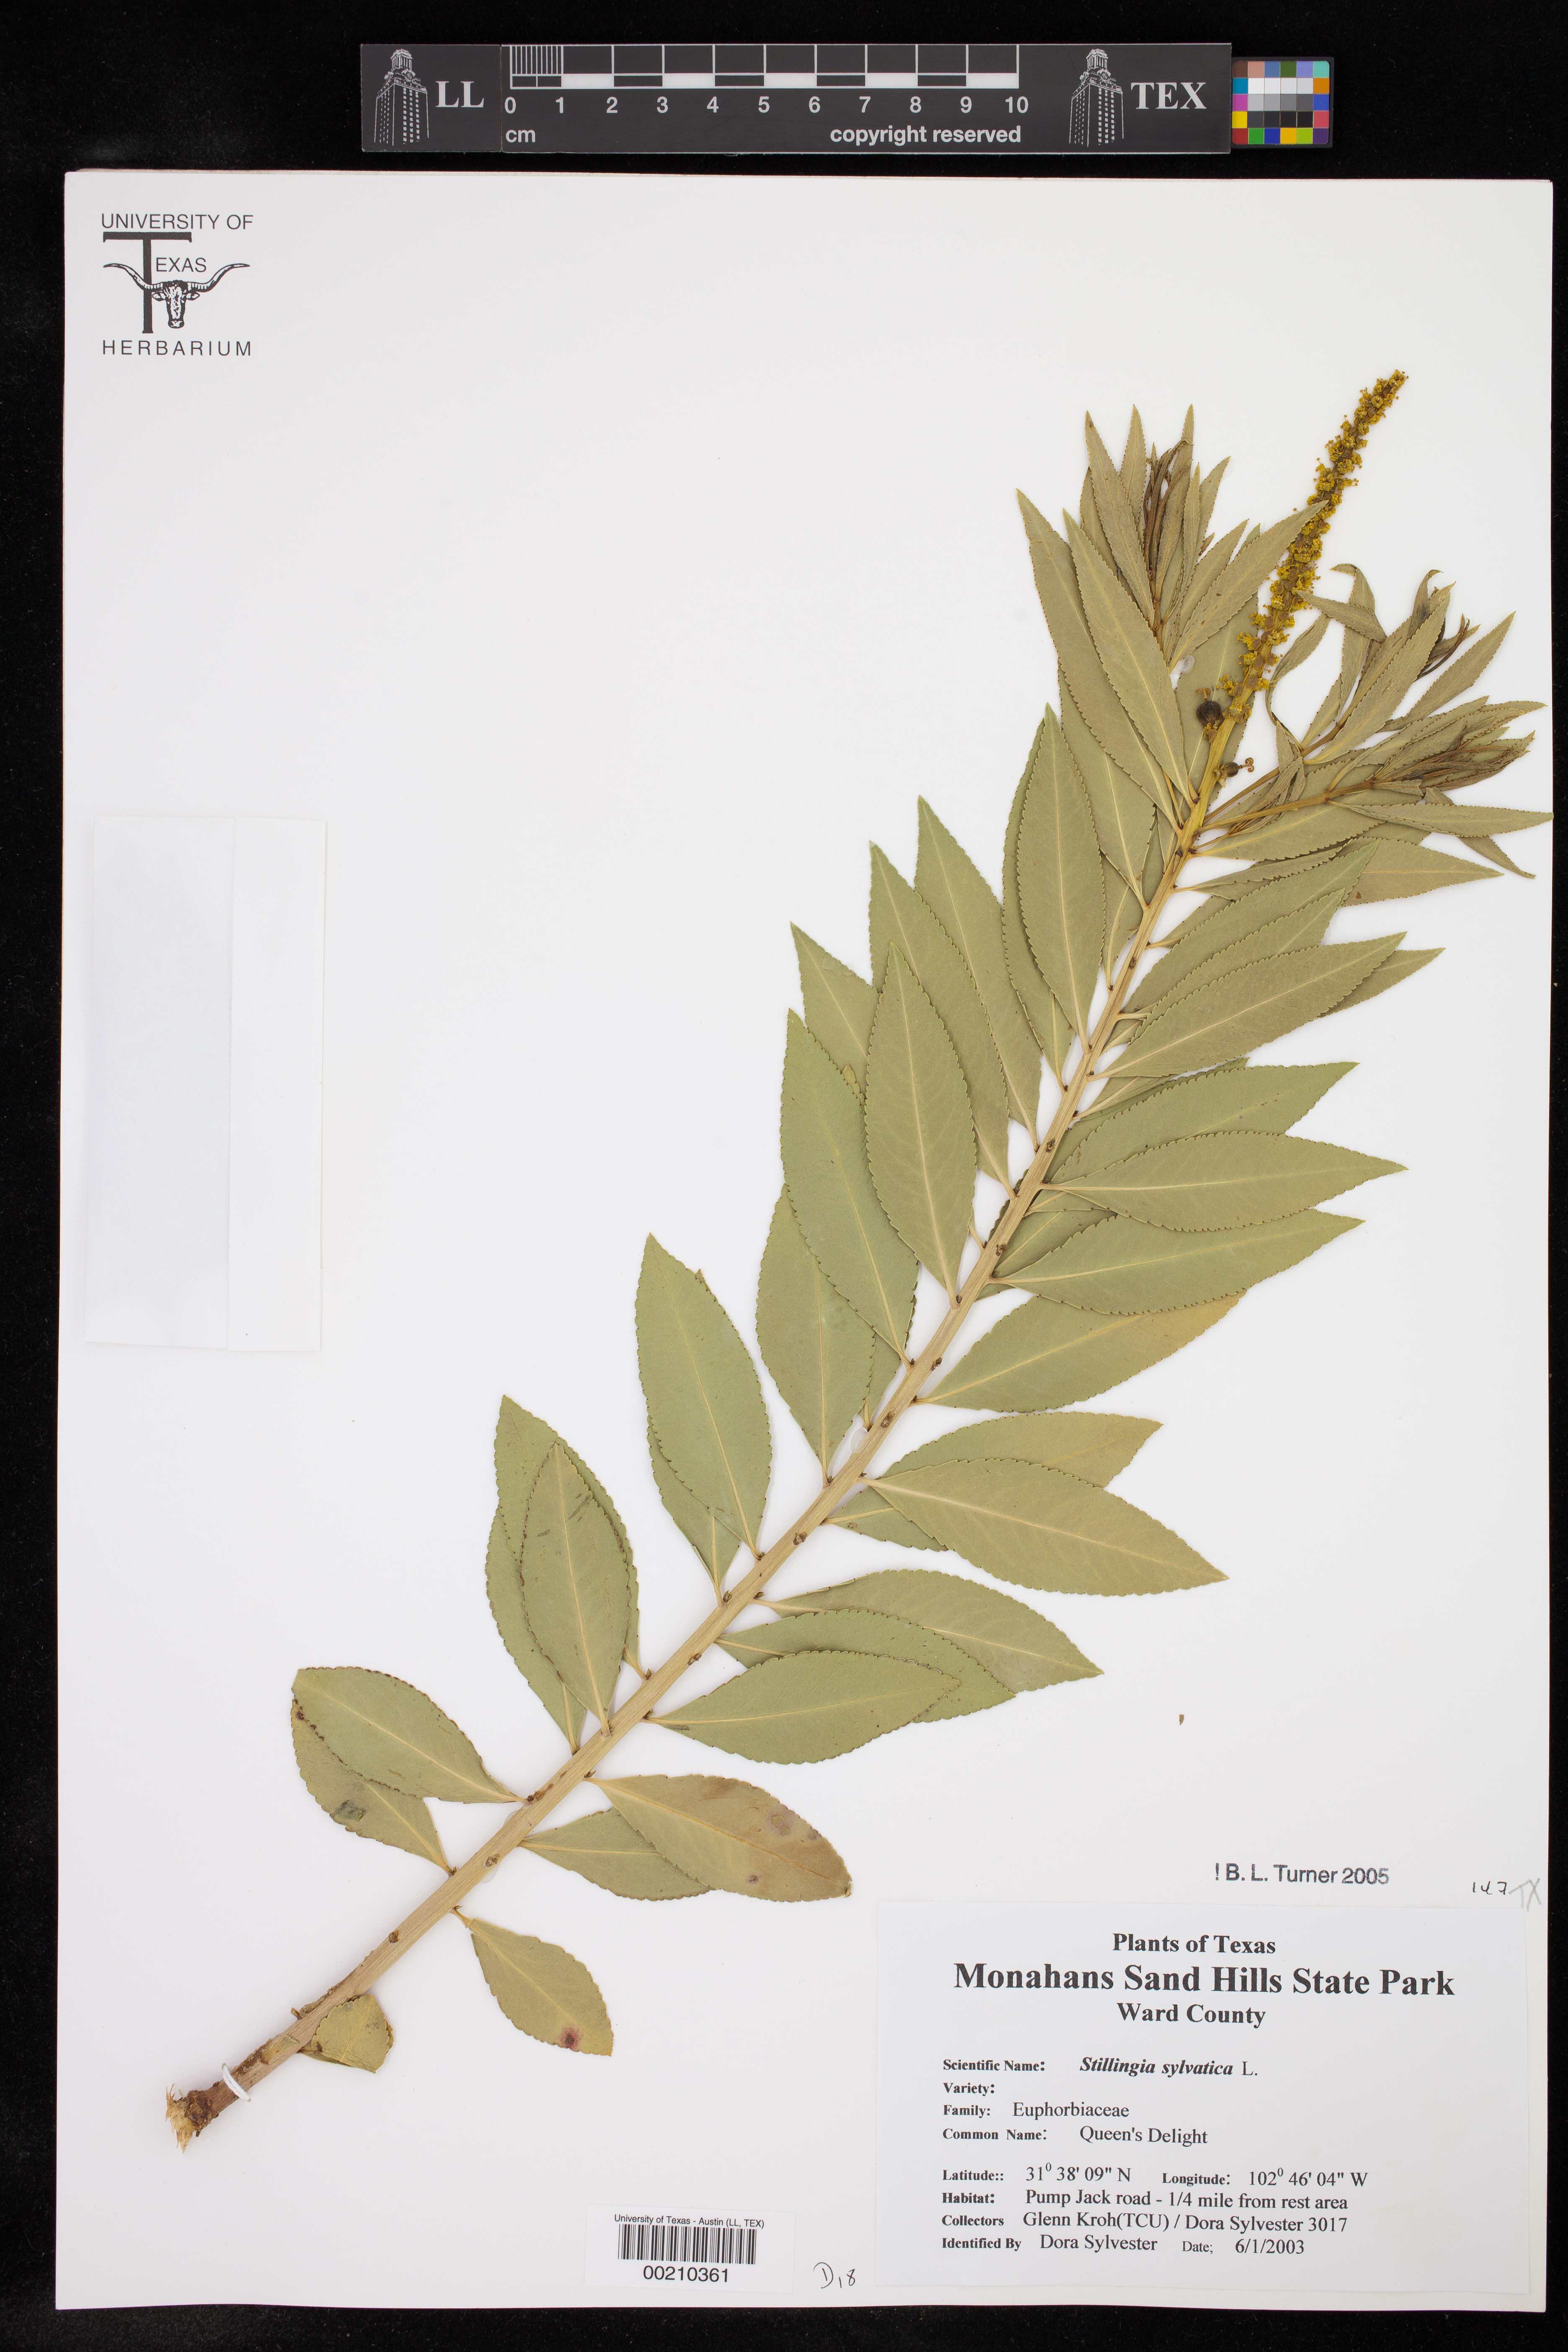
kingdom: Plantae
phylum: Tracheophyta
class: Magnoliopsida
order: Malpighiales
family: Euphorbiaceae
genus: Stillingia
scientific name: Stillingia sylvatica
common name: Queen's-delight
